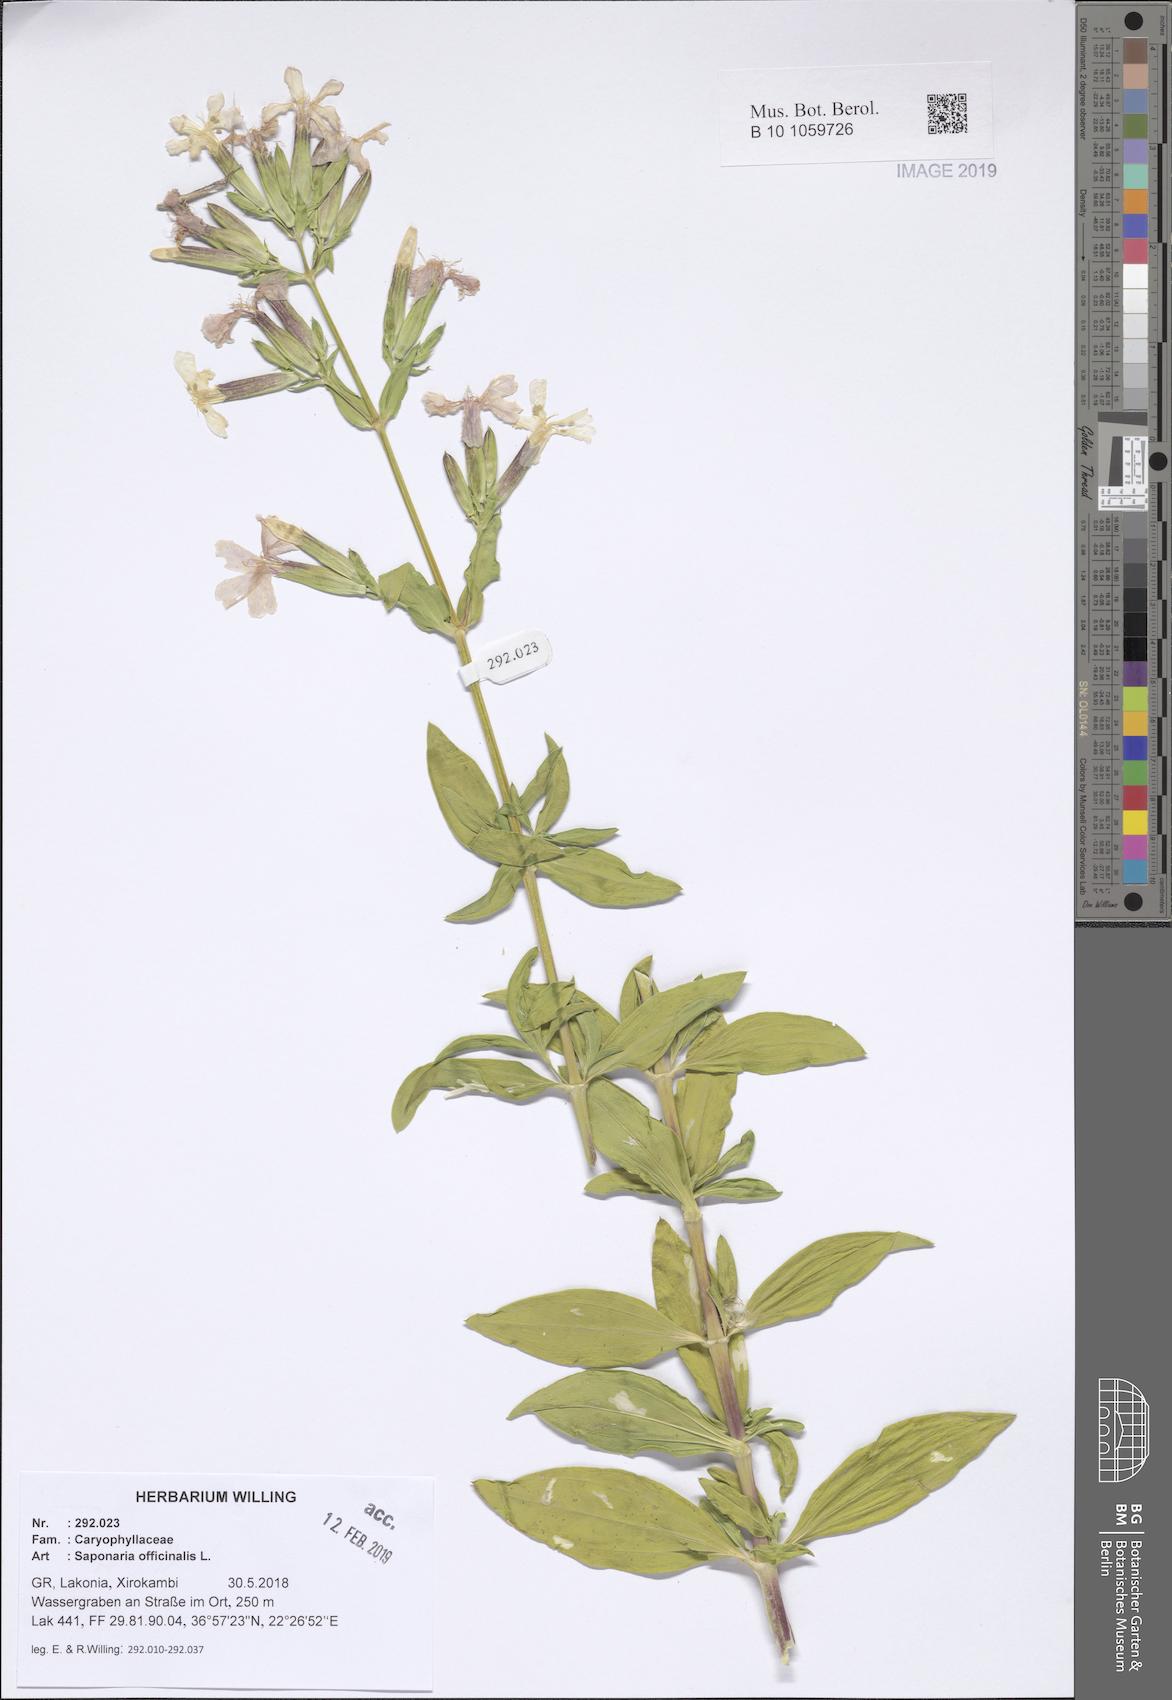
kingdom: Plantae
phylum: Tracheophyta
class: Magnoliopsida
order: Caryophyllales
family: Caryophyllaceae
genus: Saponaria
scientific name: Saponaria officinalis
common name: Soapwort
